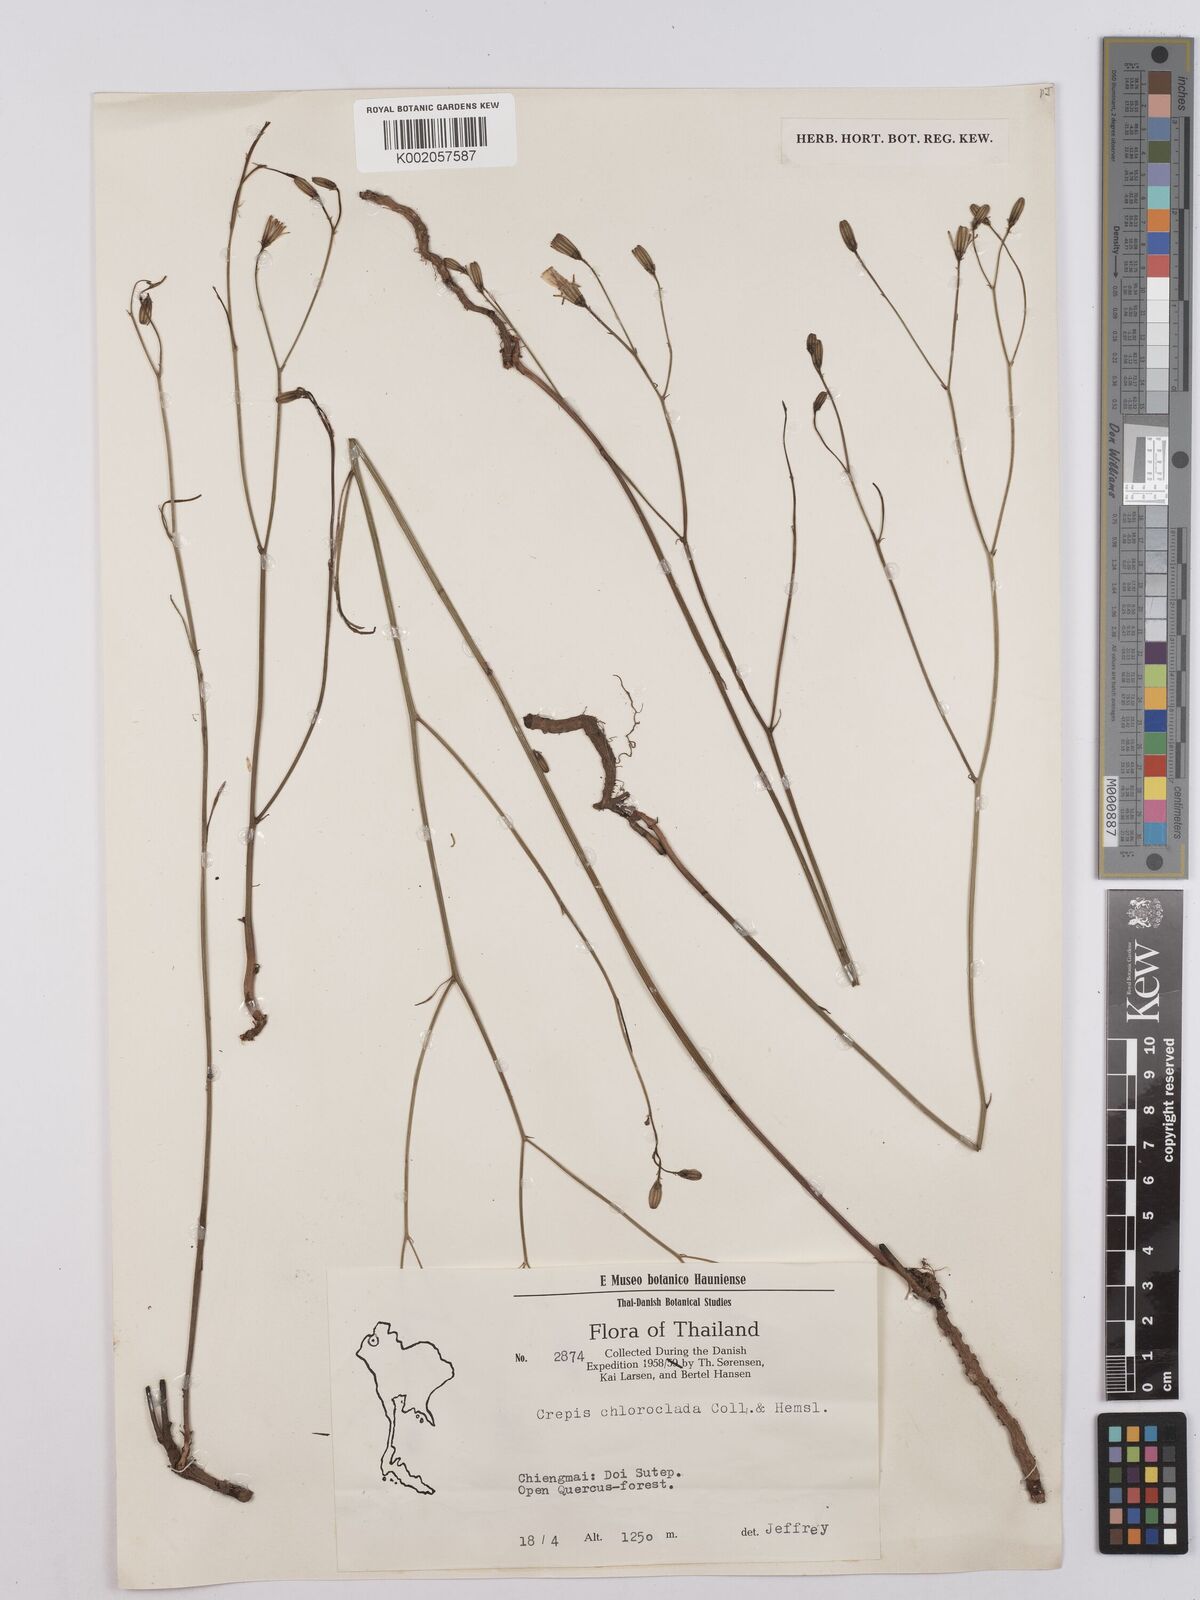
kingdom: Plantae
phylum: Tracheophyta
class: Magnoliopsida
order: Asterales
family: Asteraceae
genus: Crepis
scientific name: Crepis lignea
